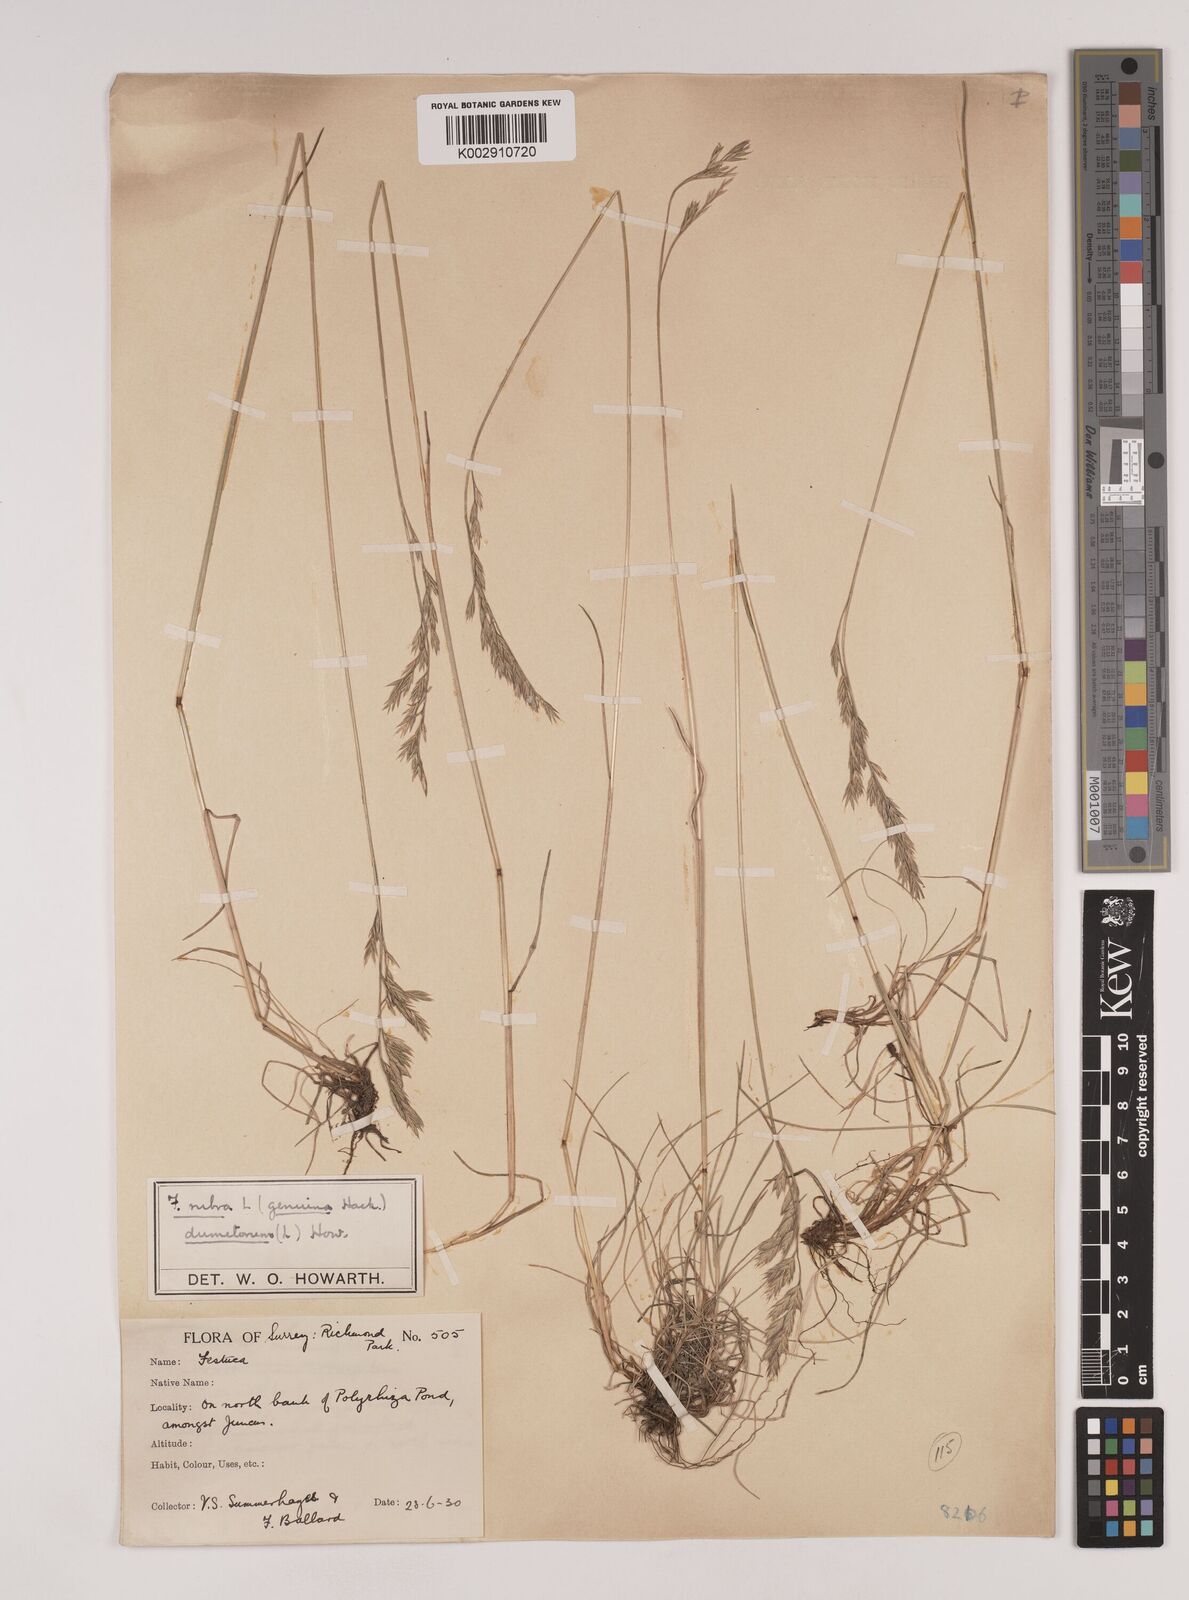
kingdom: Plantae
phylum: Tracheophyta
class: Liliopsida
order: Poales
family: Poaceae
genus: Festuca
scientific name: Festuca rubra
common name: Red fescue
